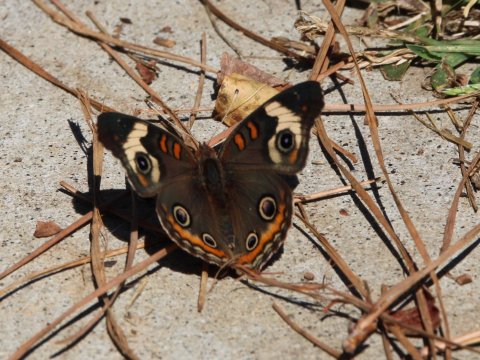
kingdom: Animalia
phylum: Arthropoda
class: Insecta
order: Lepidoptera
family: Nymphalidae
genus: Junonia
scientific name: Junonia coenia
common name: Common Buckeye
